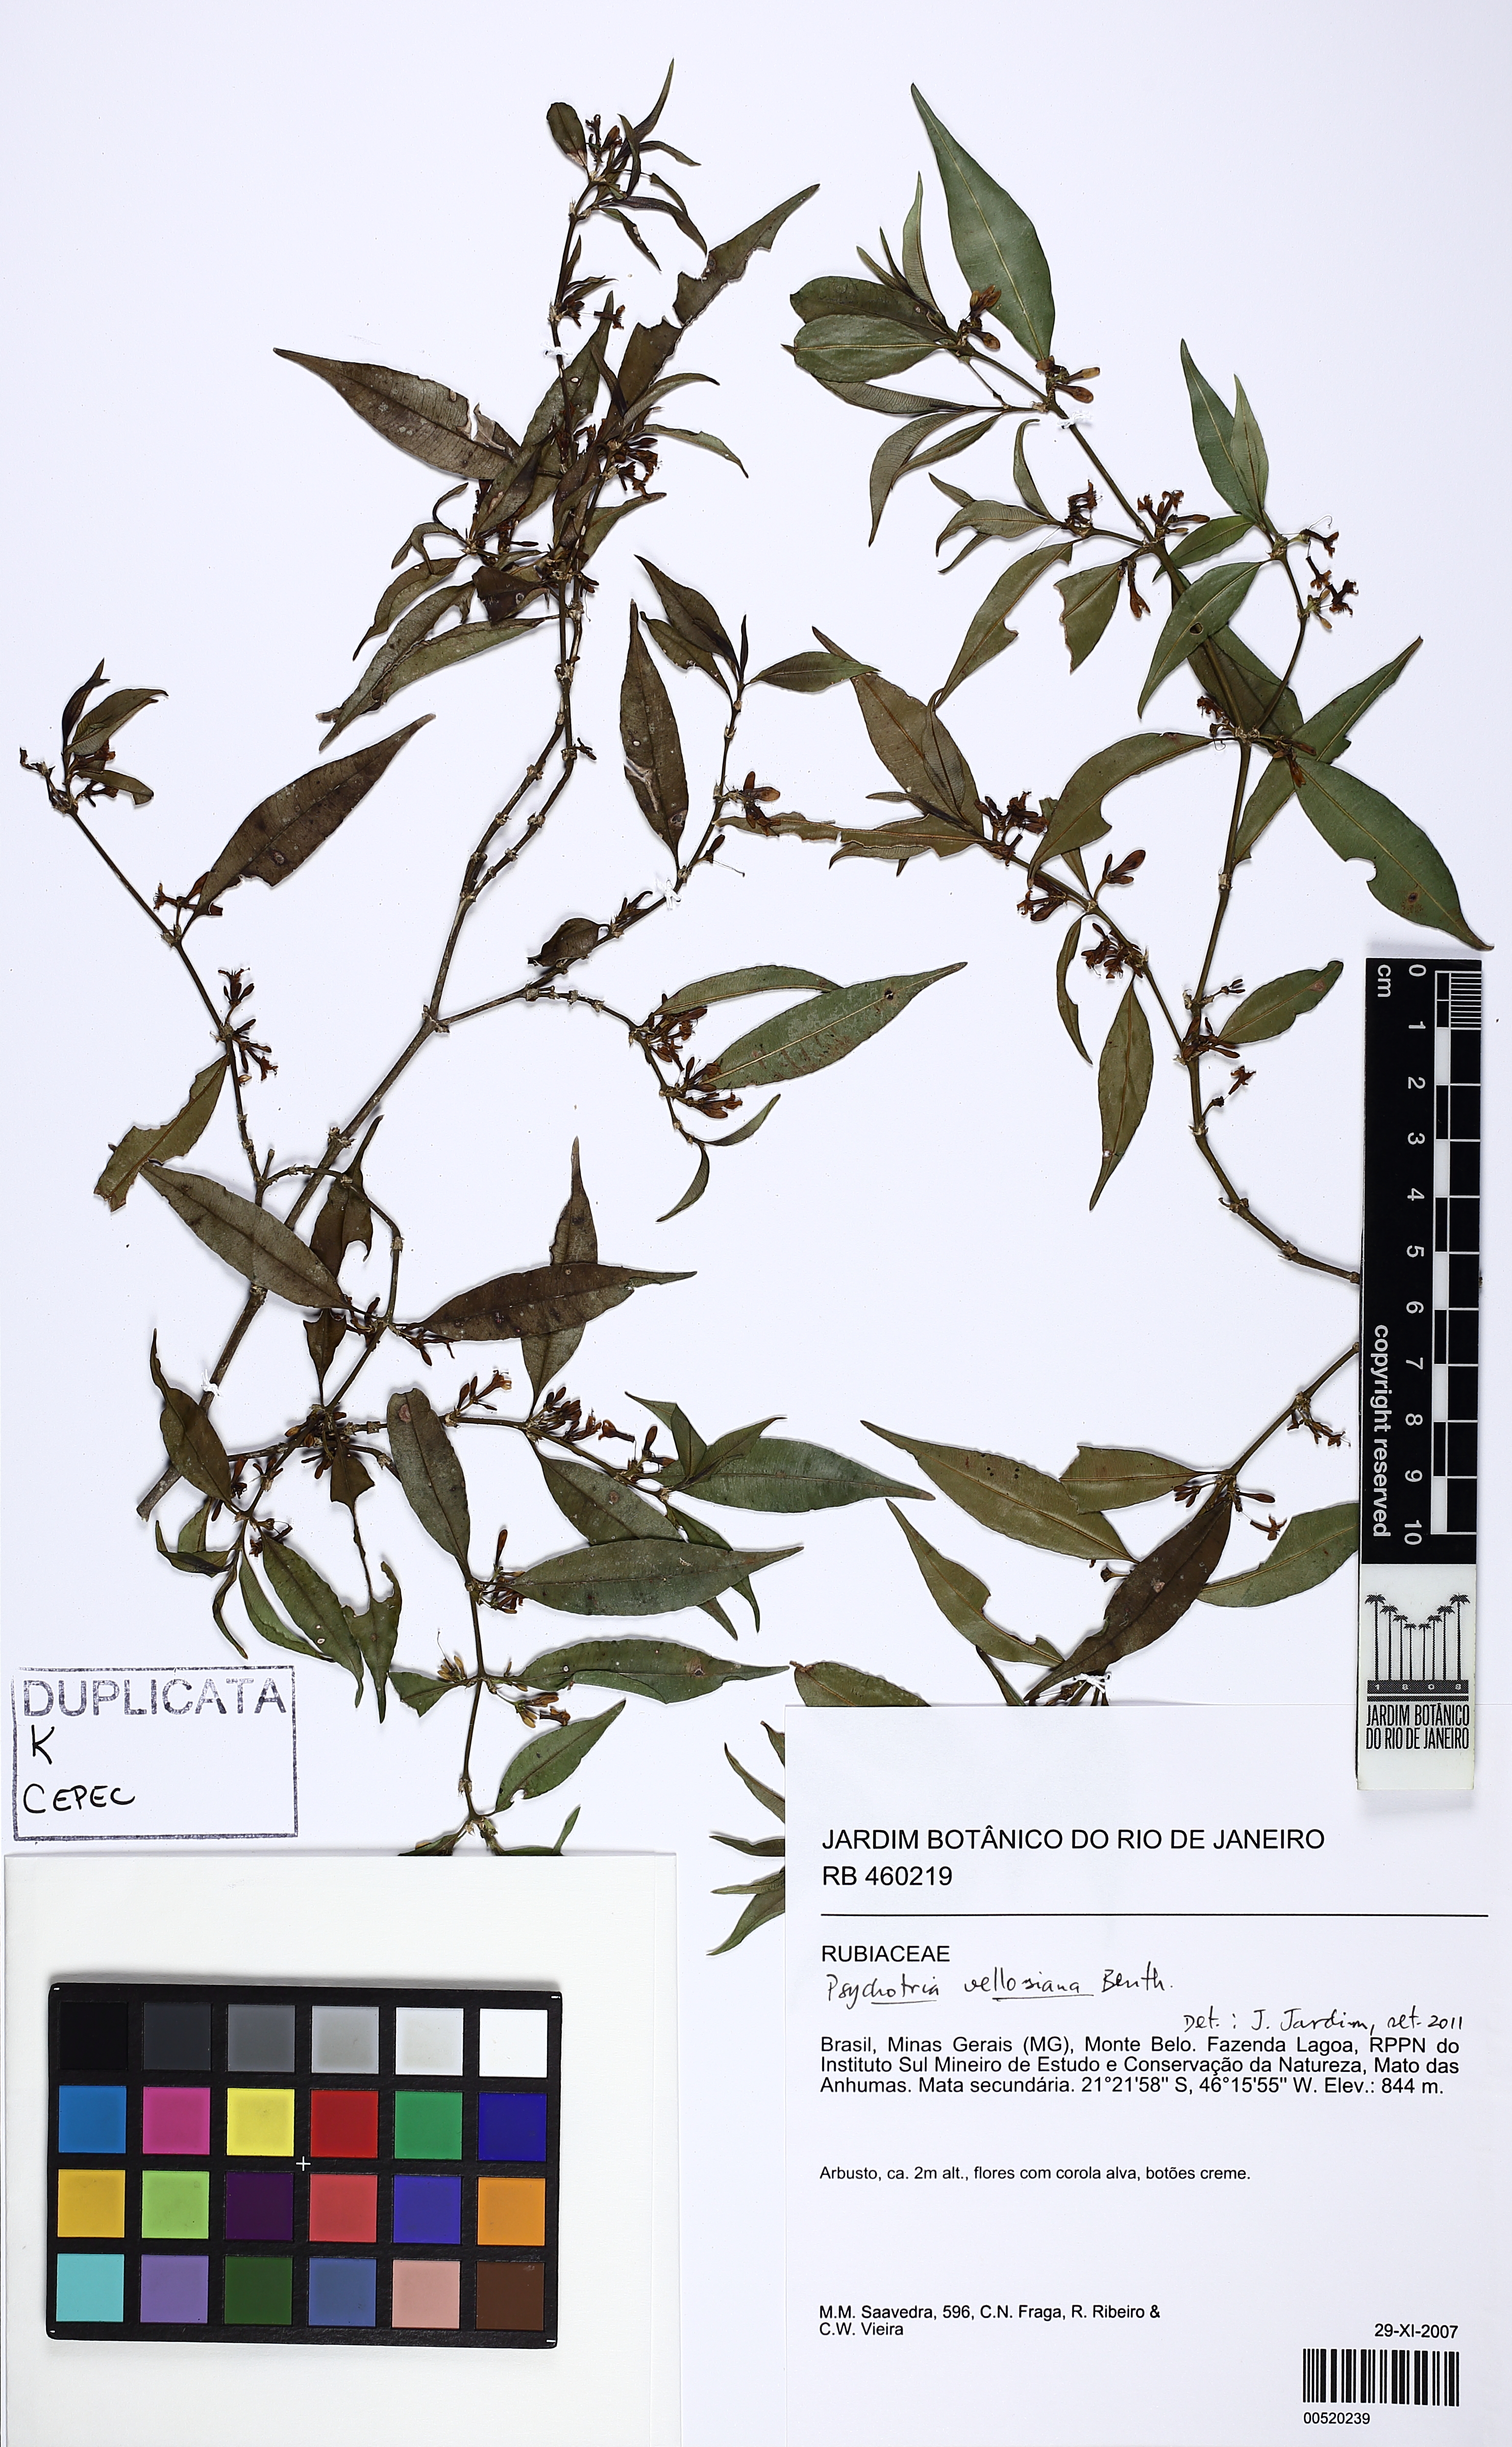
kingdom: Plantae
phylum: Tracheophyta
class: Magnoliopsida
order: Gentianales
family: Rubiaceae
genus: Palicourea
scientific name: Palicourea sessilis
